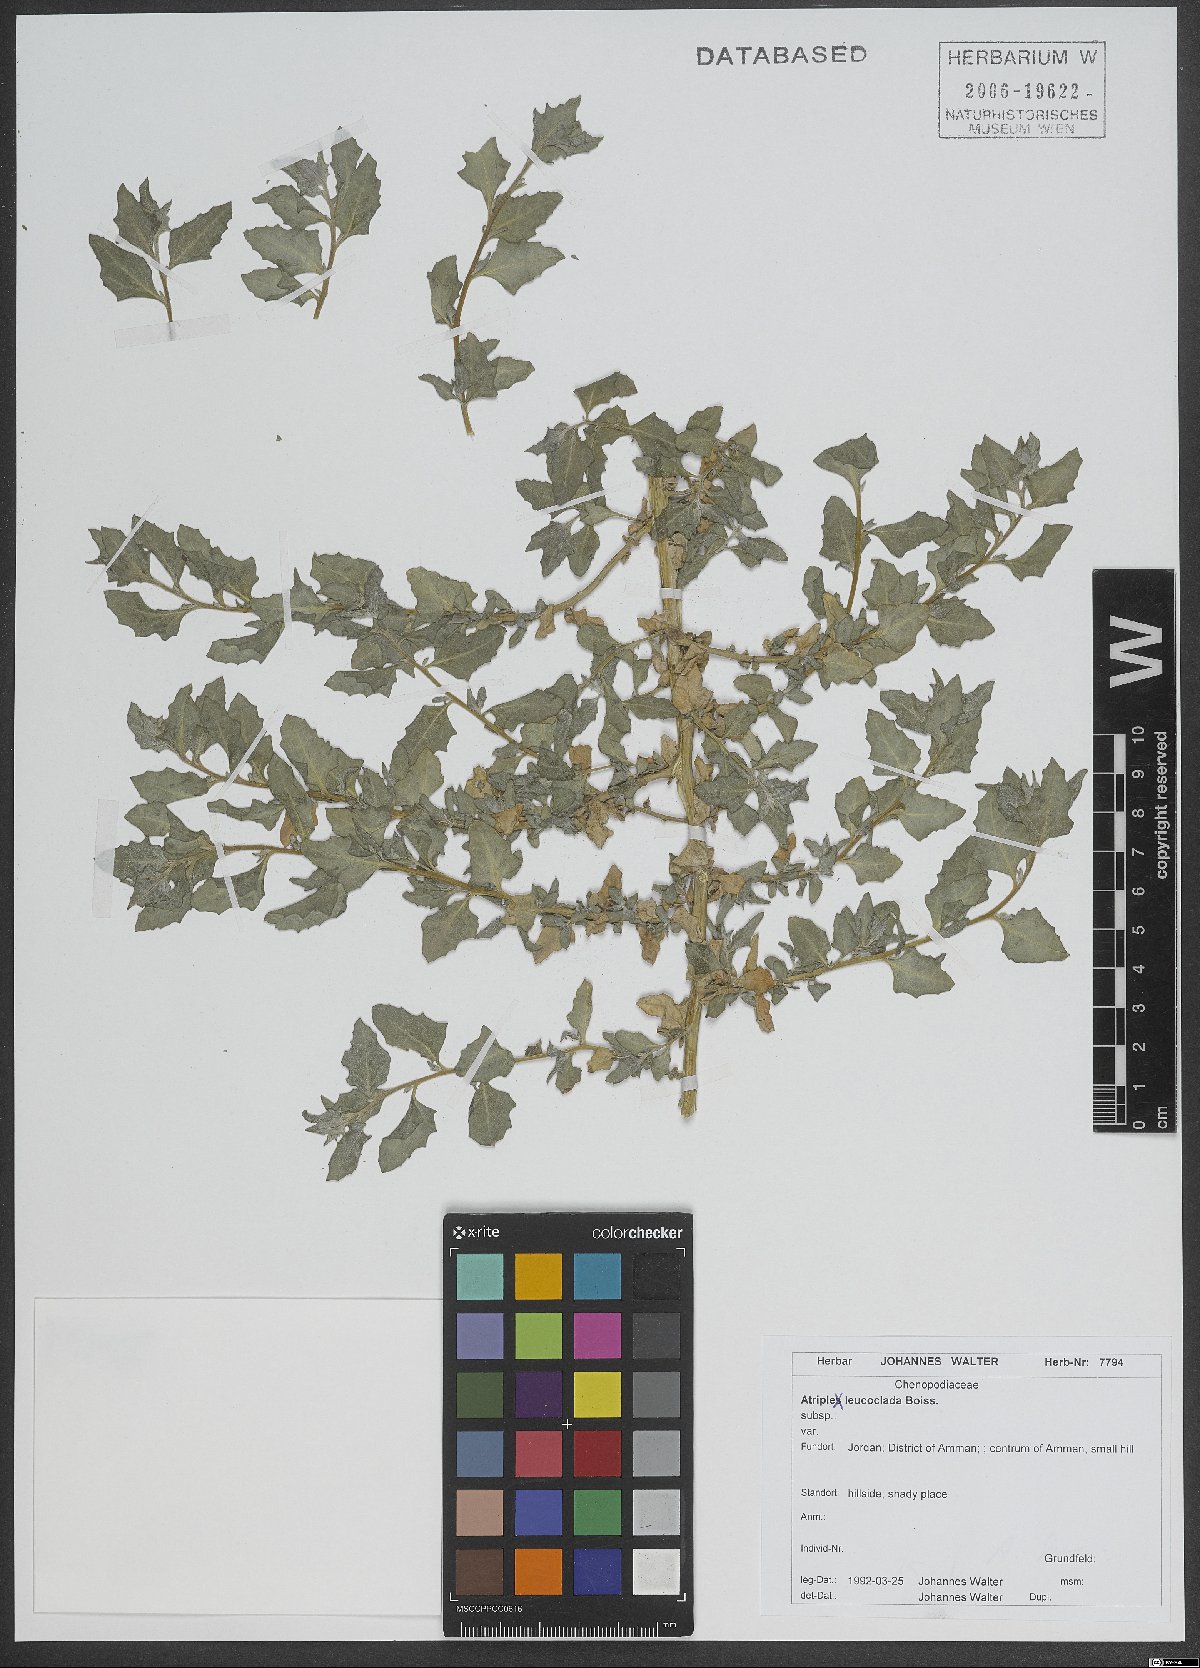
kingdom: Plantae
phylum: Tracheophyta
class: Magnoliopsida
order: Caryophyllales
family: Amaranthaceae
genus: Atriplex
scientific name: Atriplex turcomanica
